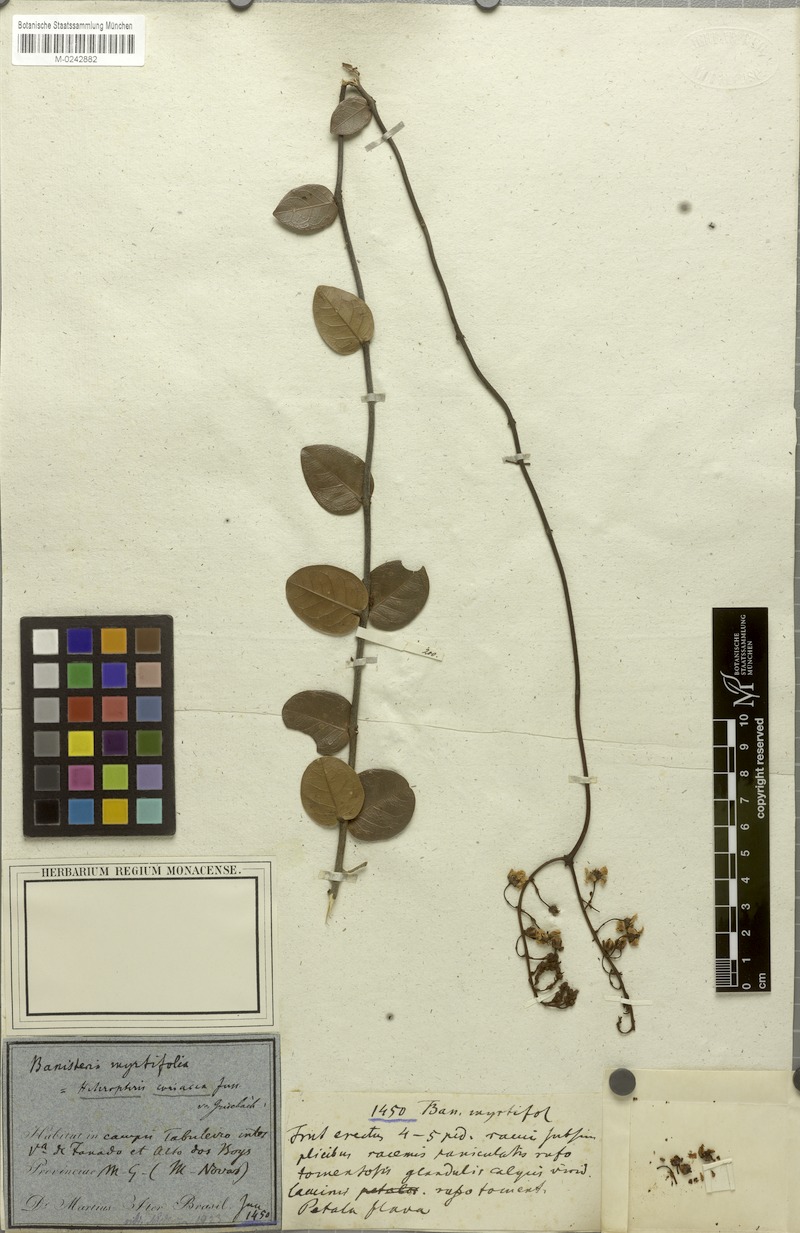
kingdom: Plantae
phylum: Tracheophyta
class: Magnoliopsida
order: Malpighiales
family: Malpighiaceae
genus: Heteropterys
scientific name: Heteropterys coriacea
